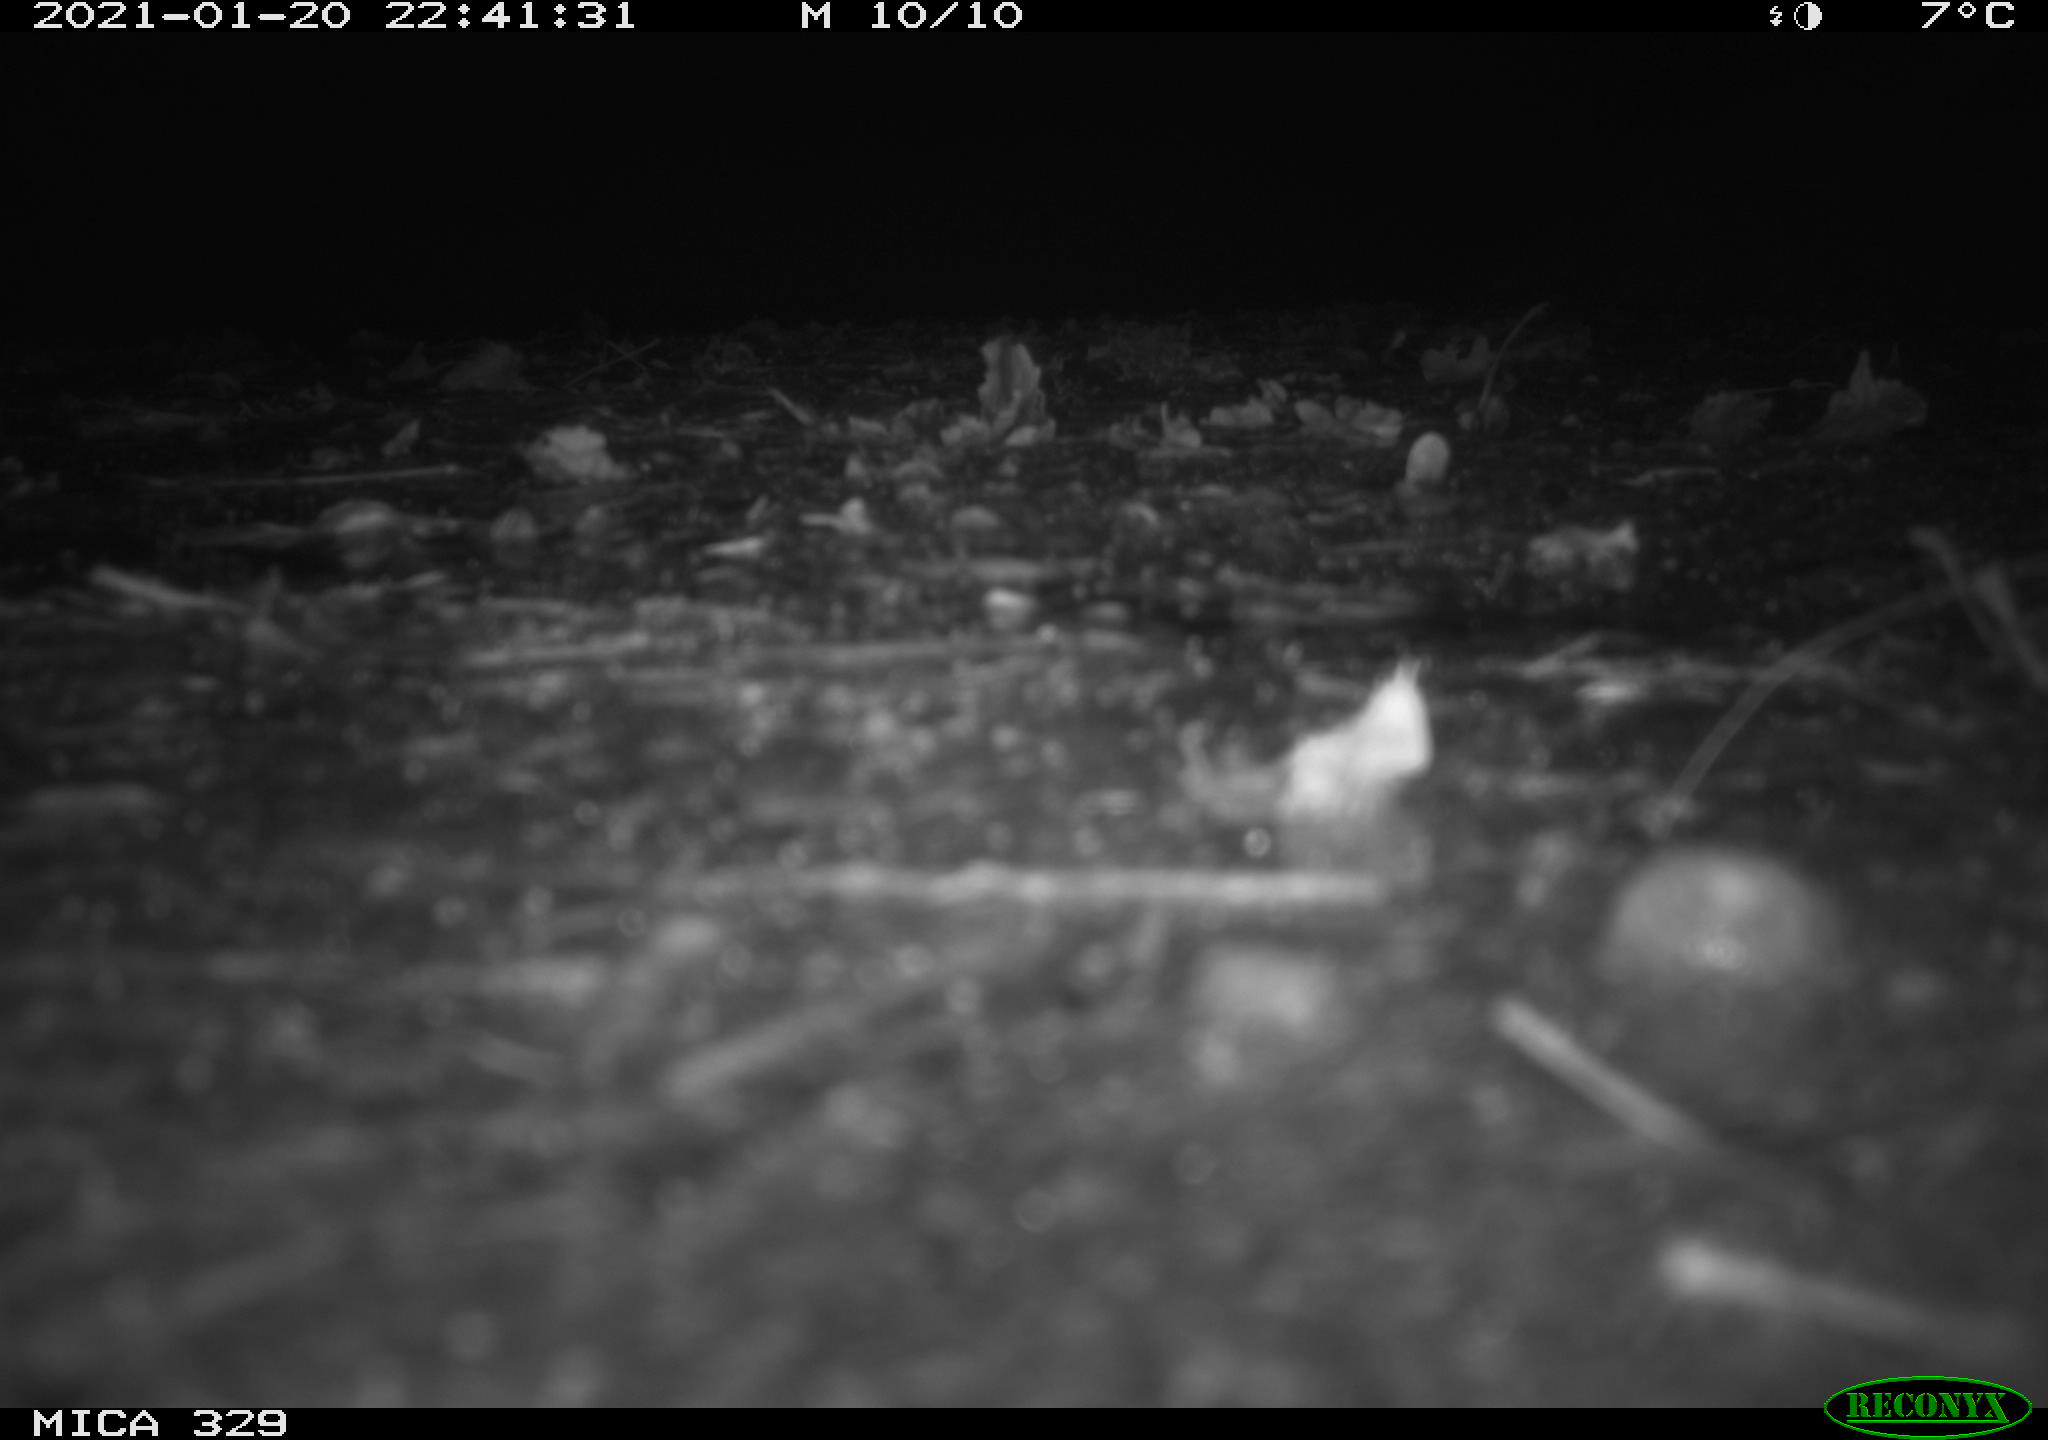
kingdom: Animalia
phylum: Chordata
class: Mammalia
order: Rodentia
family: Myocastoridae
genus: Myocastor
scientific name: Myocastor coypus
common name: Coypu
